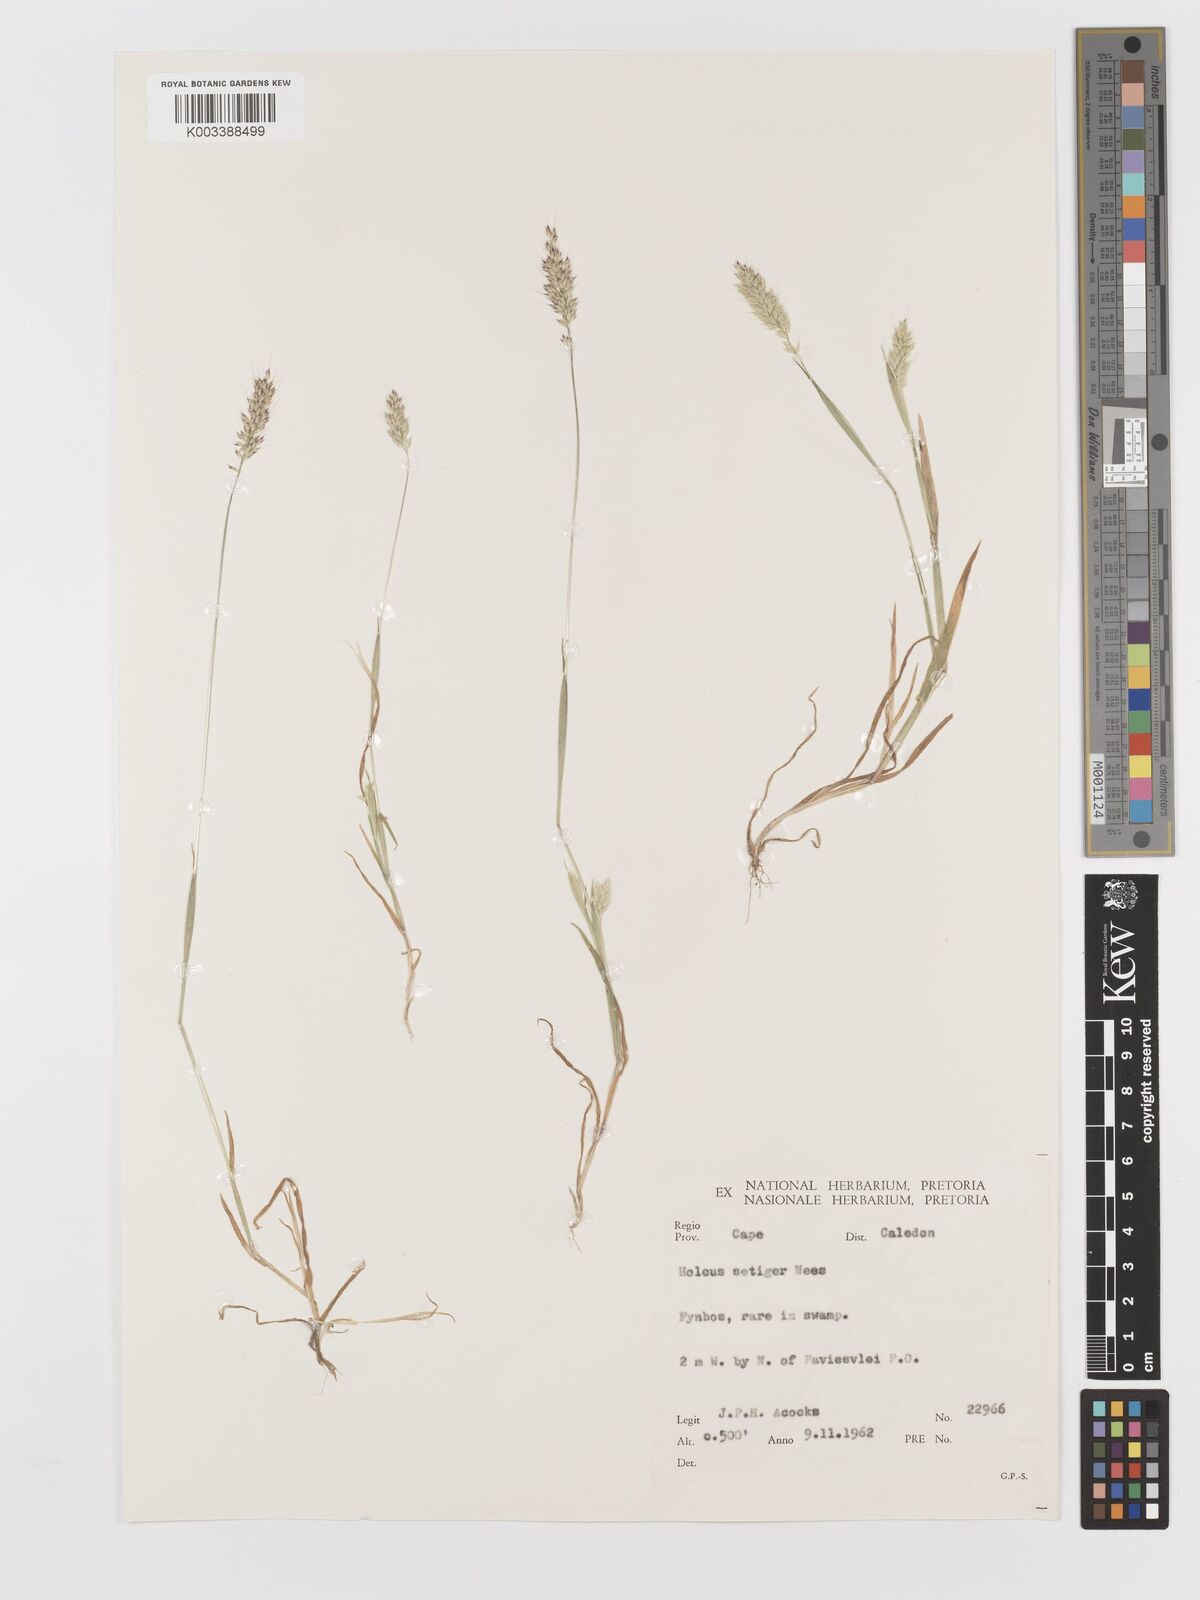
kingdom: Plantae
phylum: Tracheophyta
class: Liliopsida
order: Poales
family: Poaceae
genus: Holcus
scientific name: Holcus setiger
